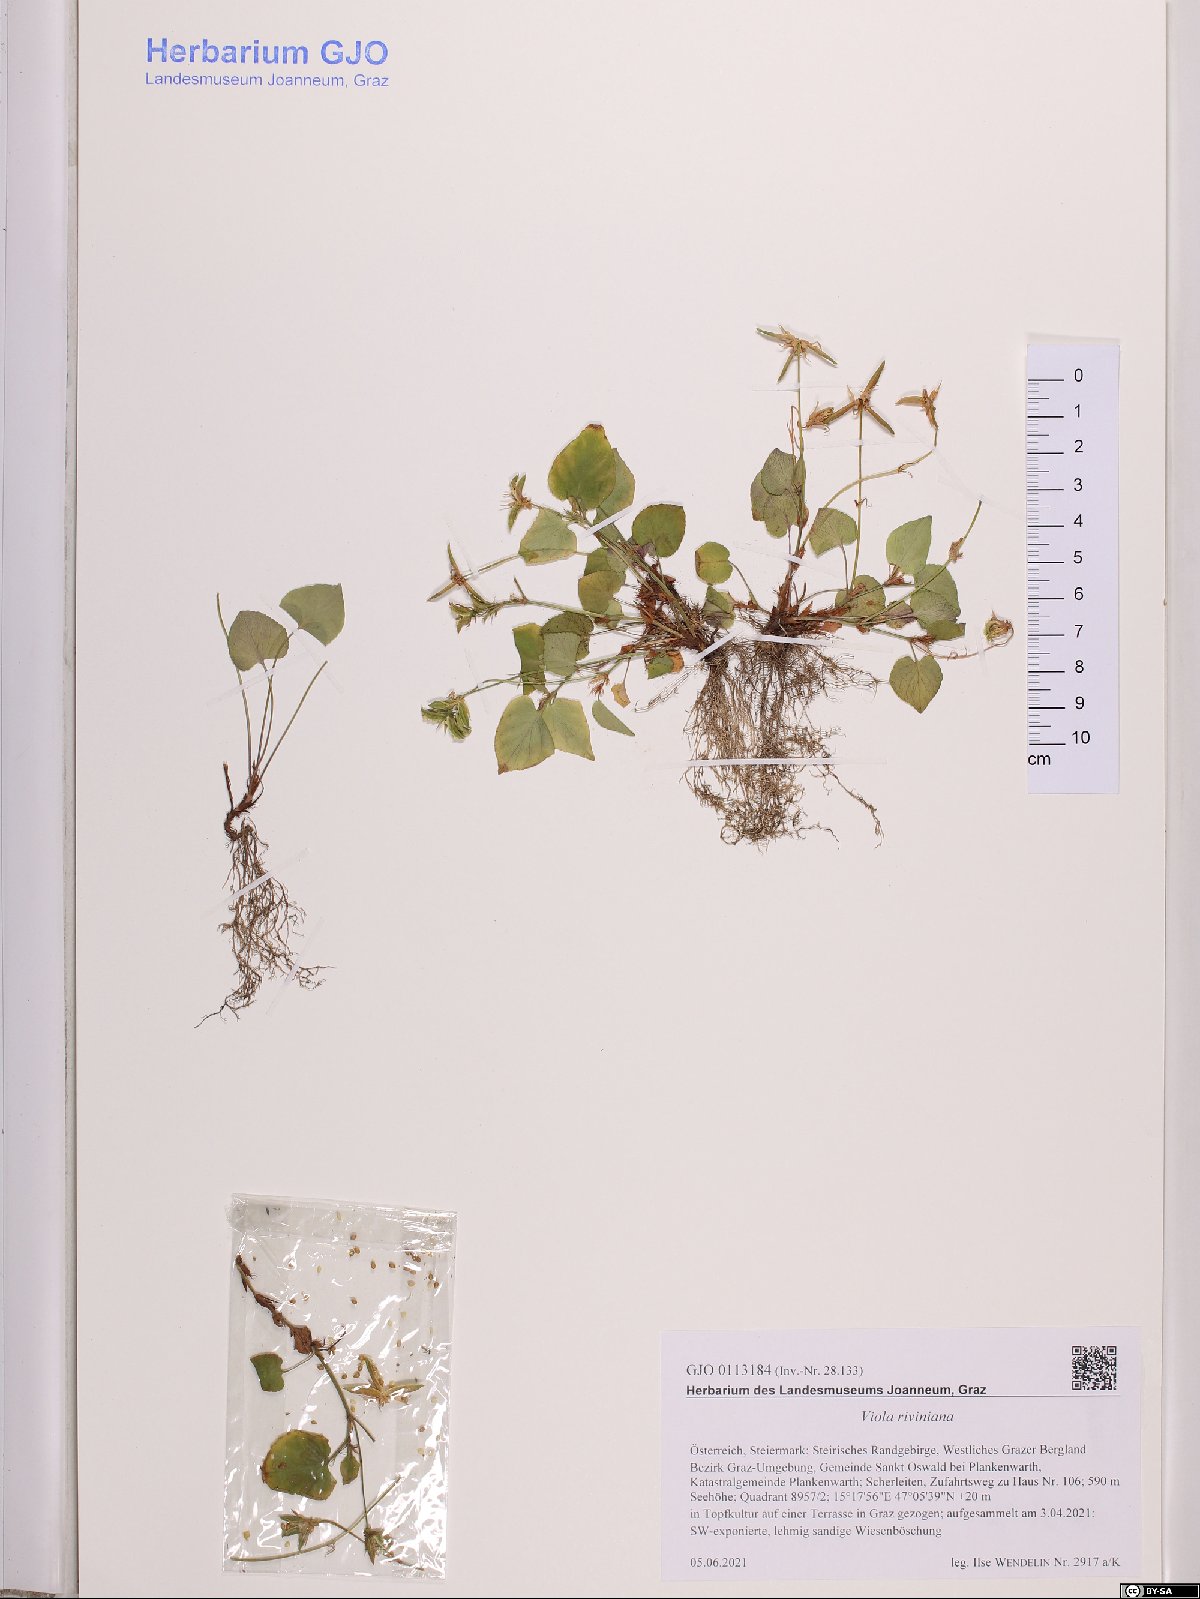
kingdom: Plantae
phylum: Tracheophyta
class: Magnoliopsida
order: Malpighiales
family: Violaceae
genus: Viola
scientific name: Viola riviniana
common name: Common dog-violet
